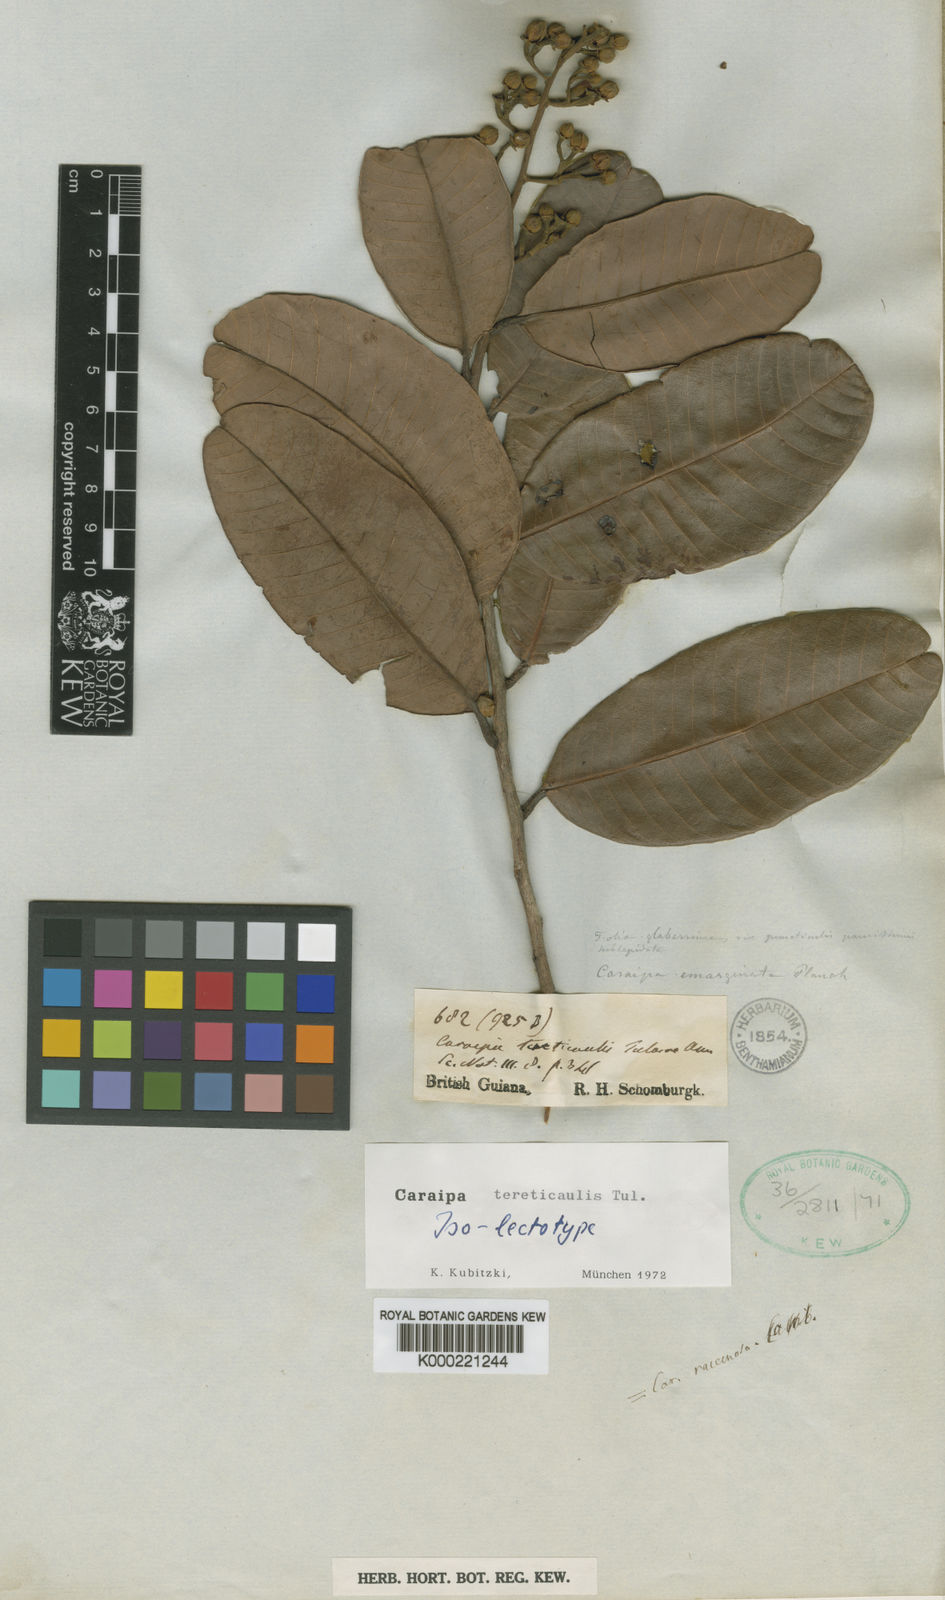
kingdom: Plantae
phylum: Tracheophyta
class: Magnoliopsida
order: Malpighiales
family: Calophyllaceae
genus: Caraipa
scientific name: Caraipa tereticaulis
